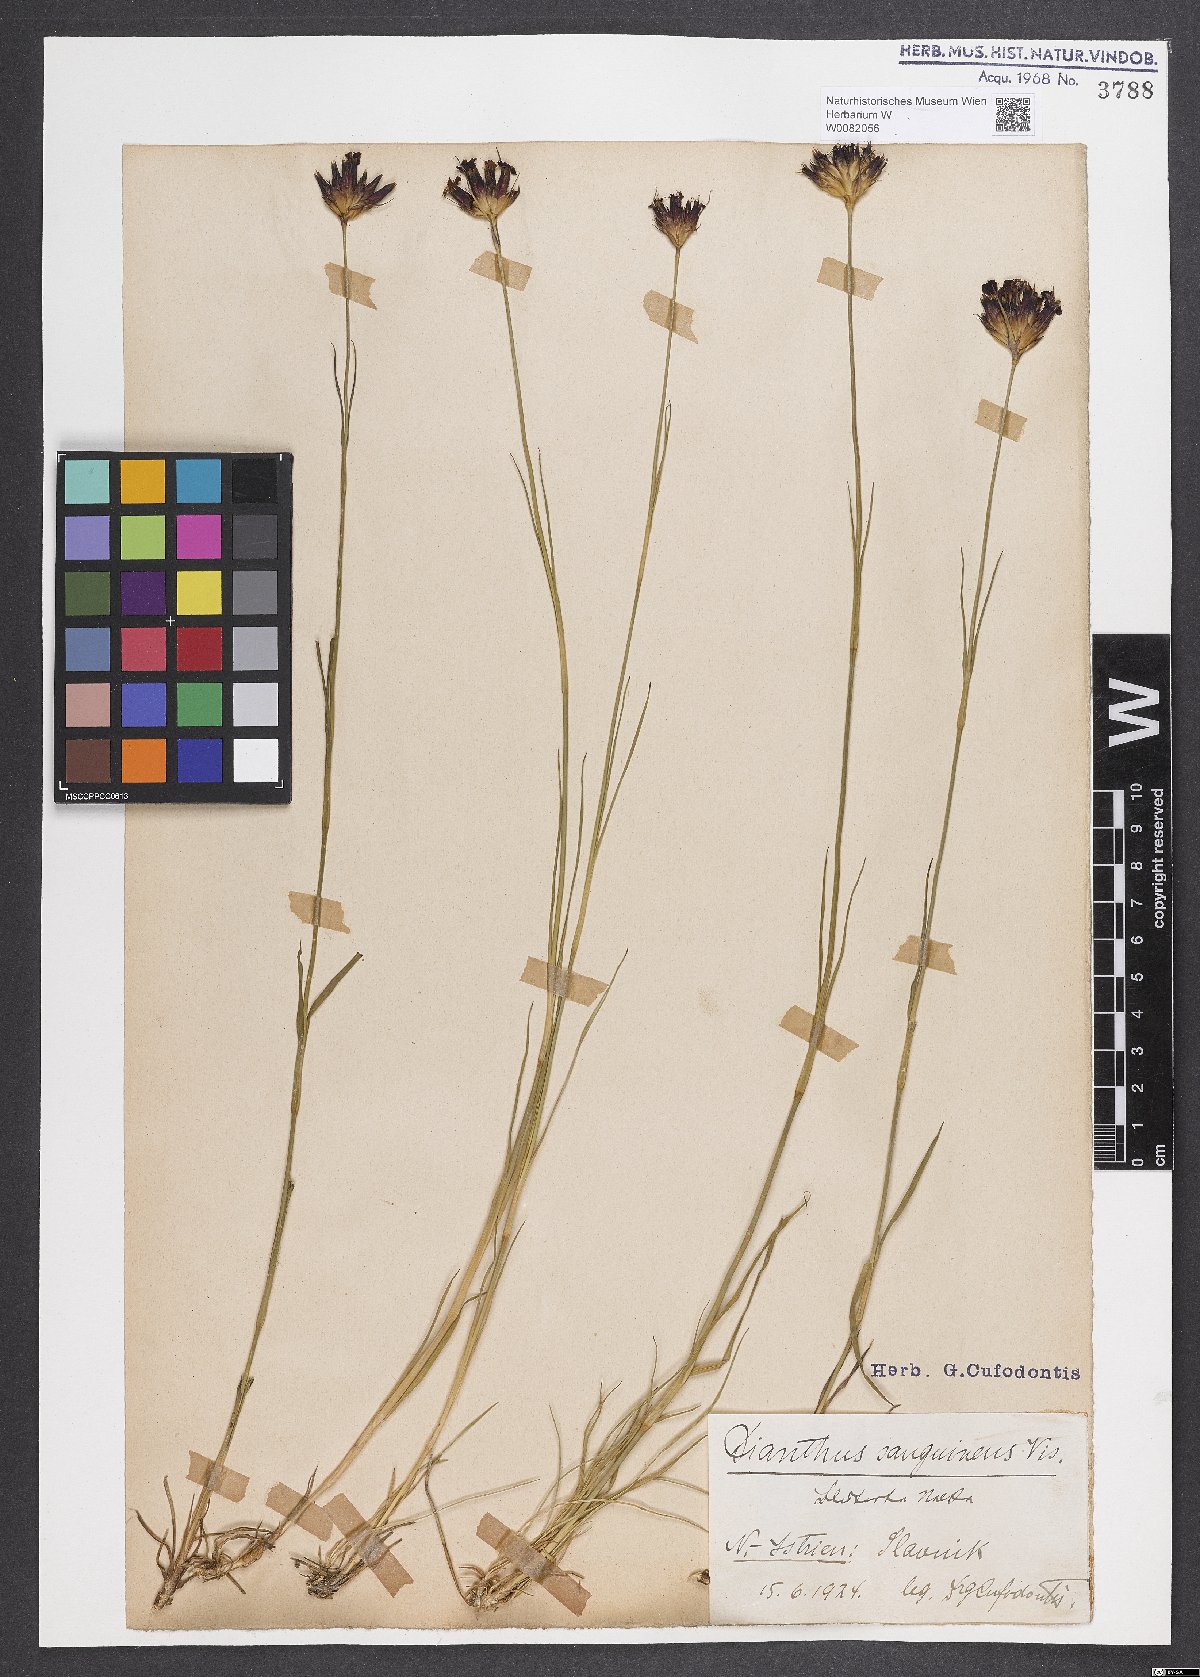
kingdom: Plantae
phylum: Tracheophyta
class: Magnoliopsida
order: Caryophyllales
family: Caryophyllaceae
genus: Dianthus
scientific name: Dianthus carthusianorum
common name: Carthusian pink
